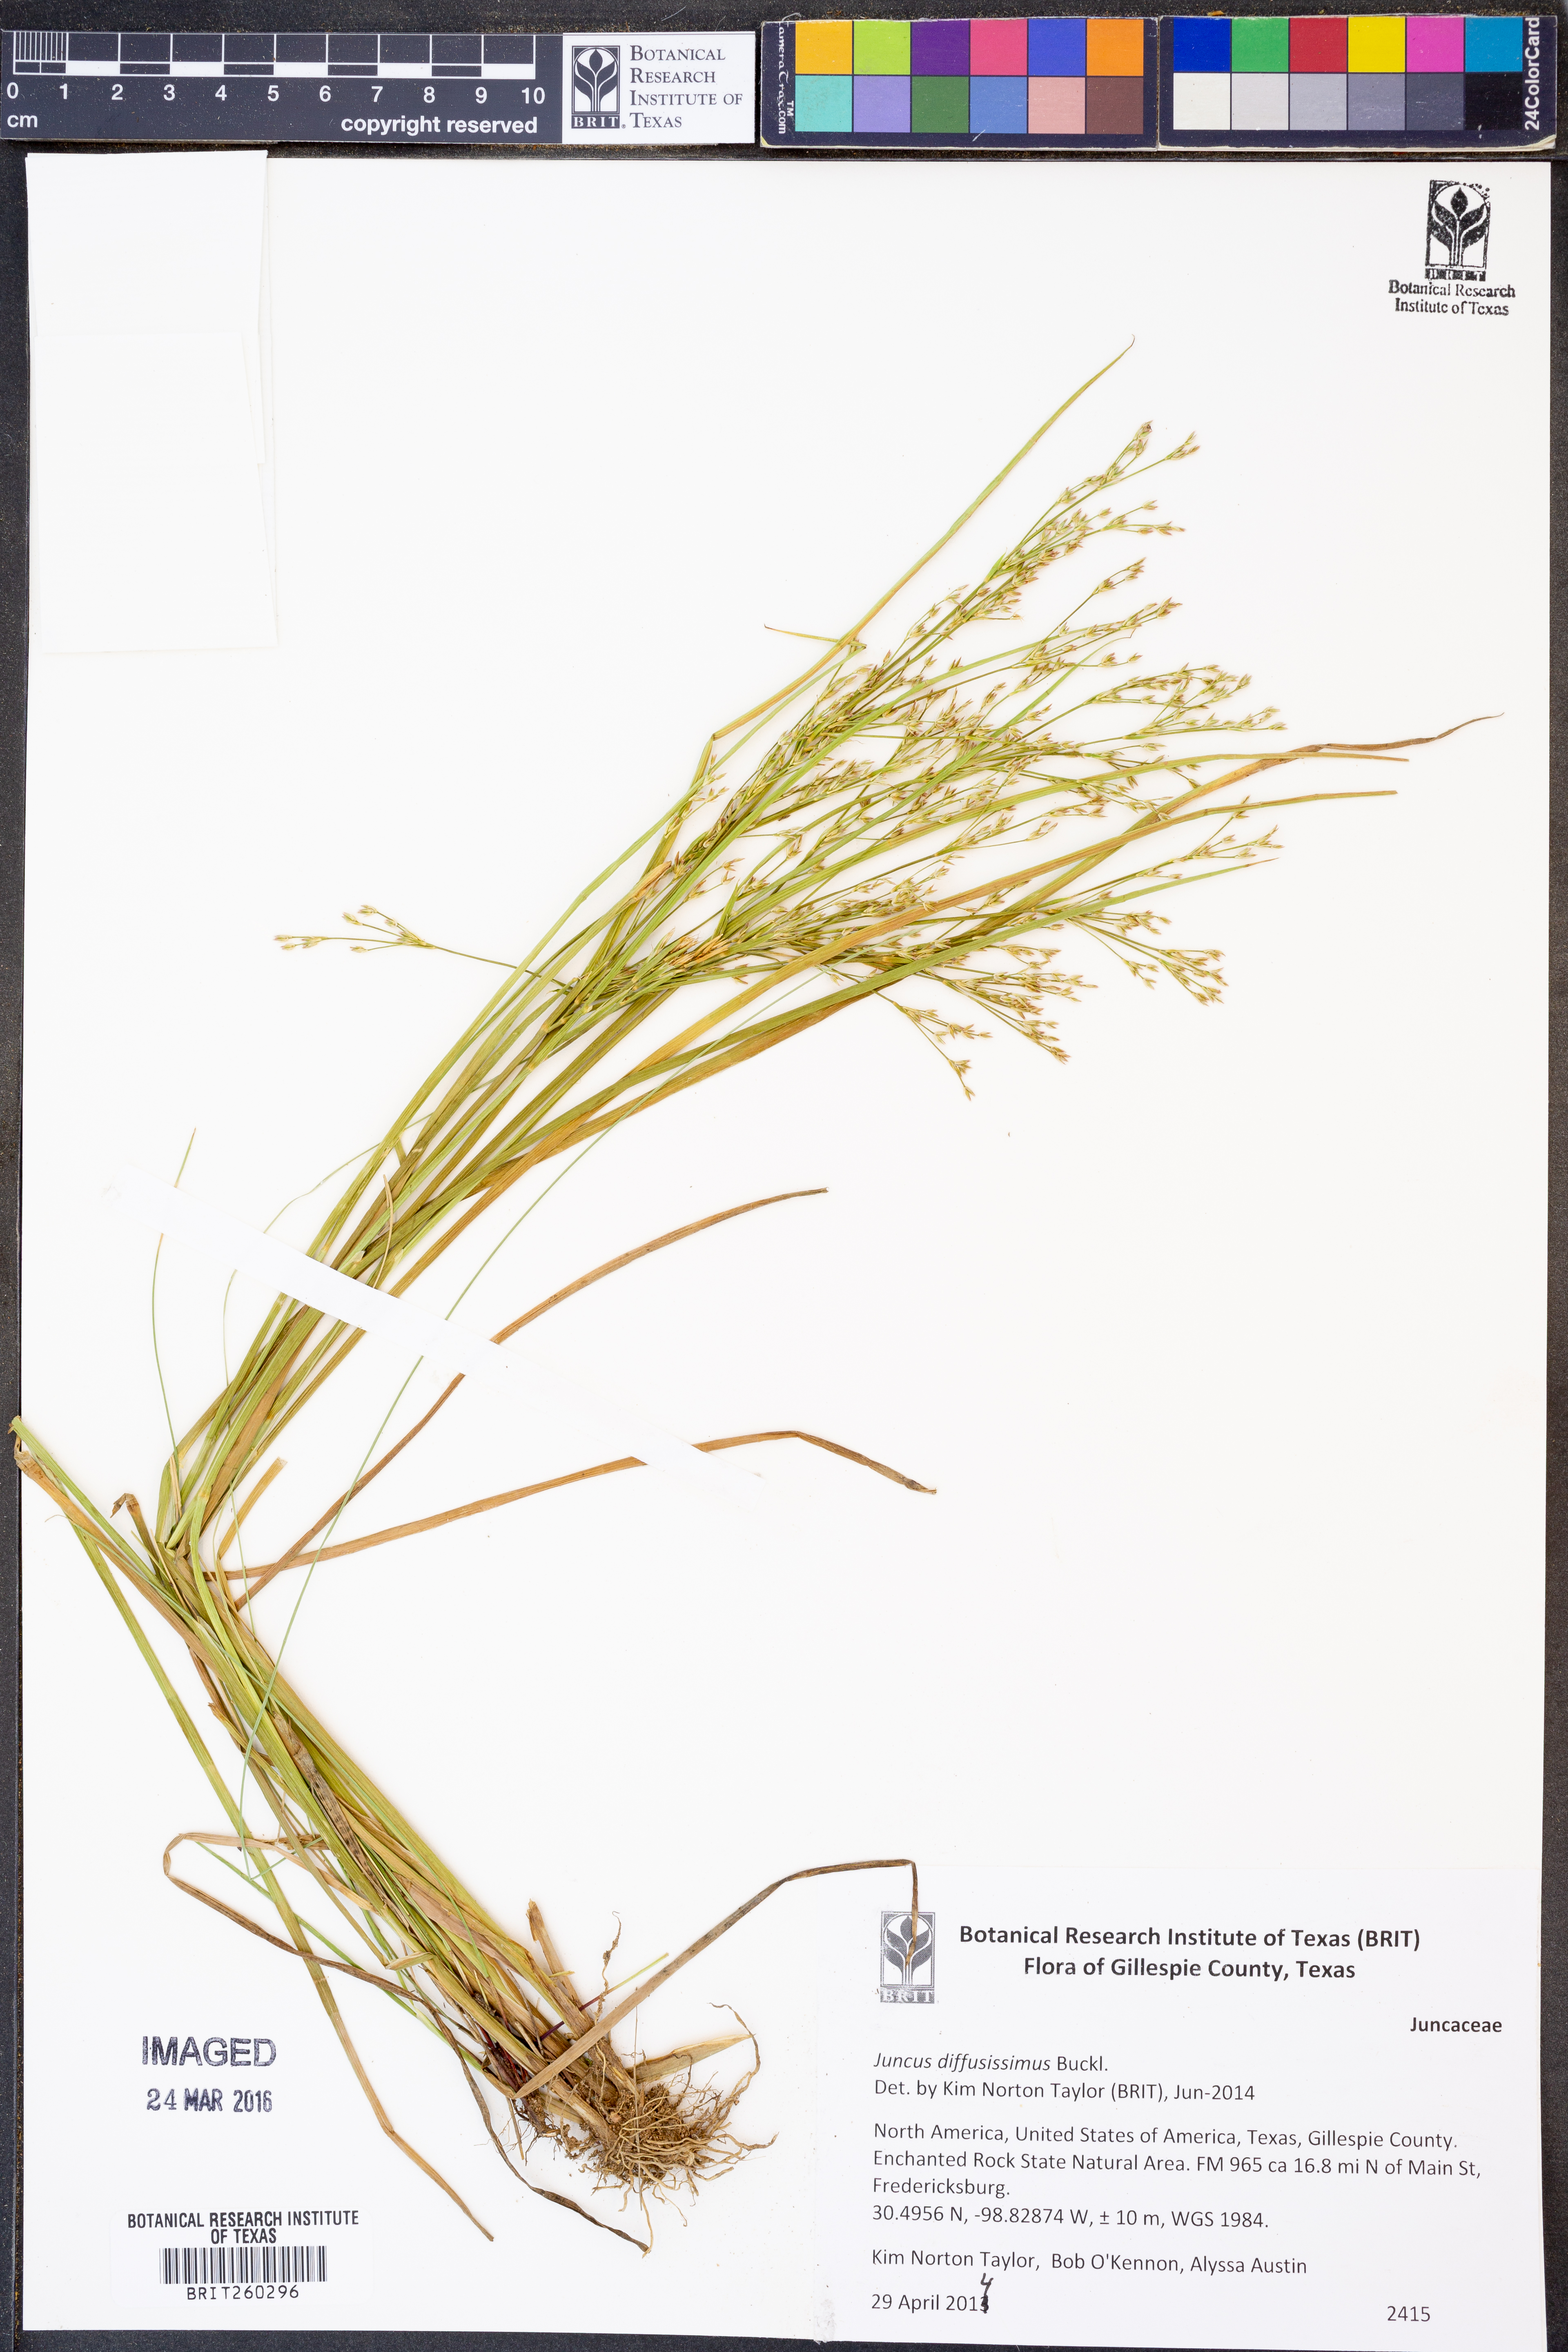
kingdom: Plantae
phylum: Tracheophyta
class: Liliopsida
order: Poales
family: Juncaceae
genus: Juncus
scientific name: Juncus diffusissimus
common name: Slimpod rush
